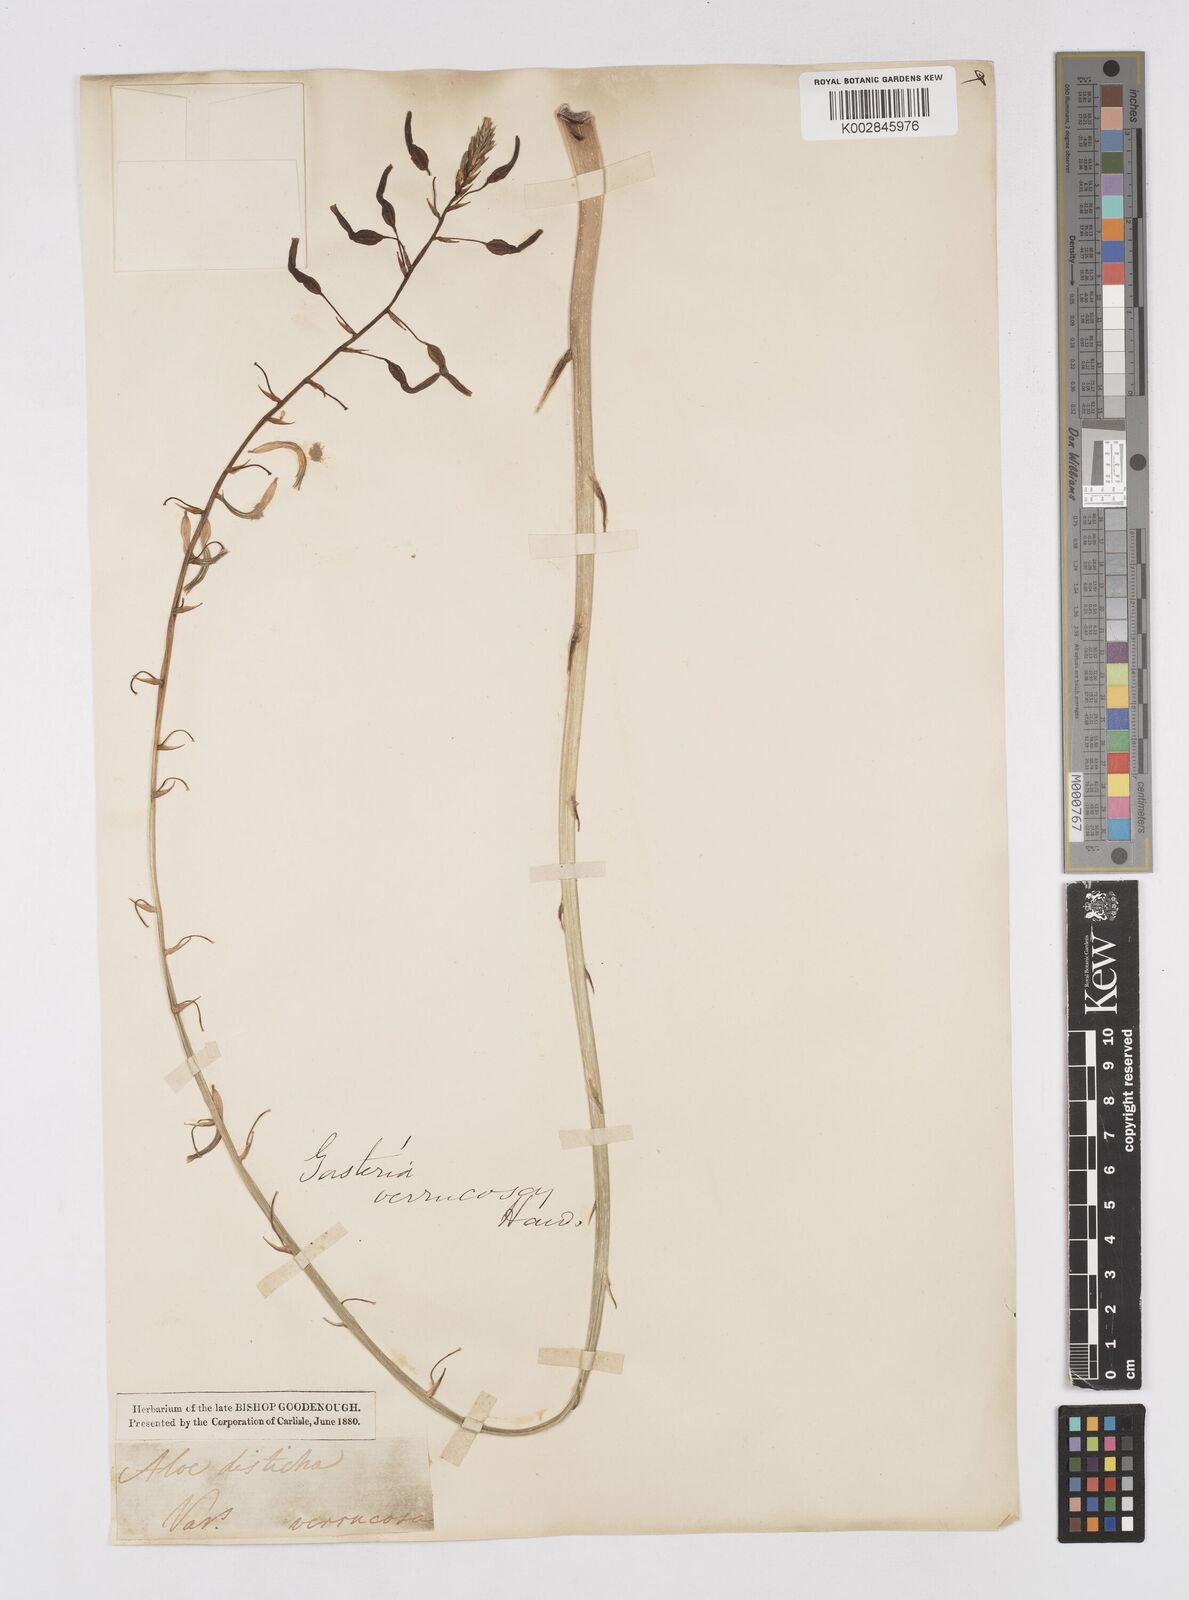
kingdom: Plantae
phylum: Tracheophyta
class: Liliopsida
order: Asparagales
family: Asphodelaceae
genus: Gasteria
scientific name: Gasteria carinata
